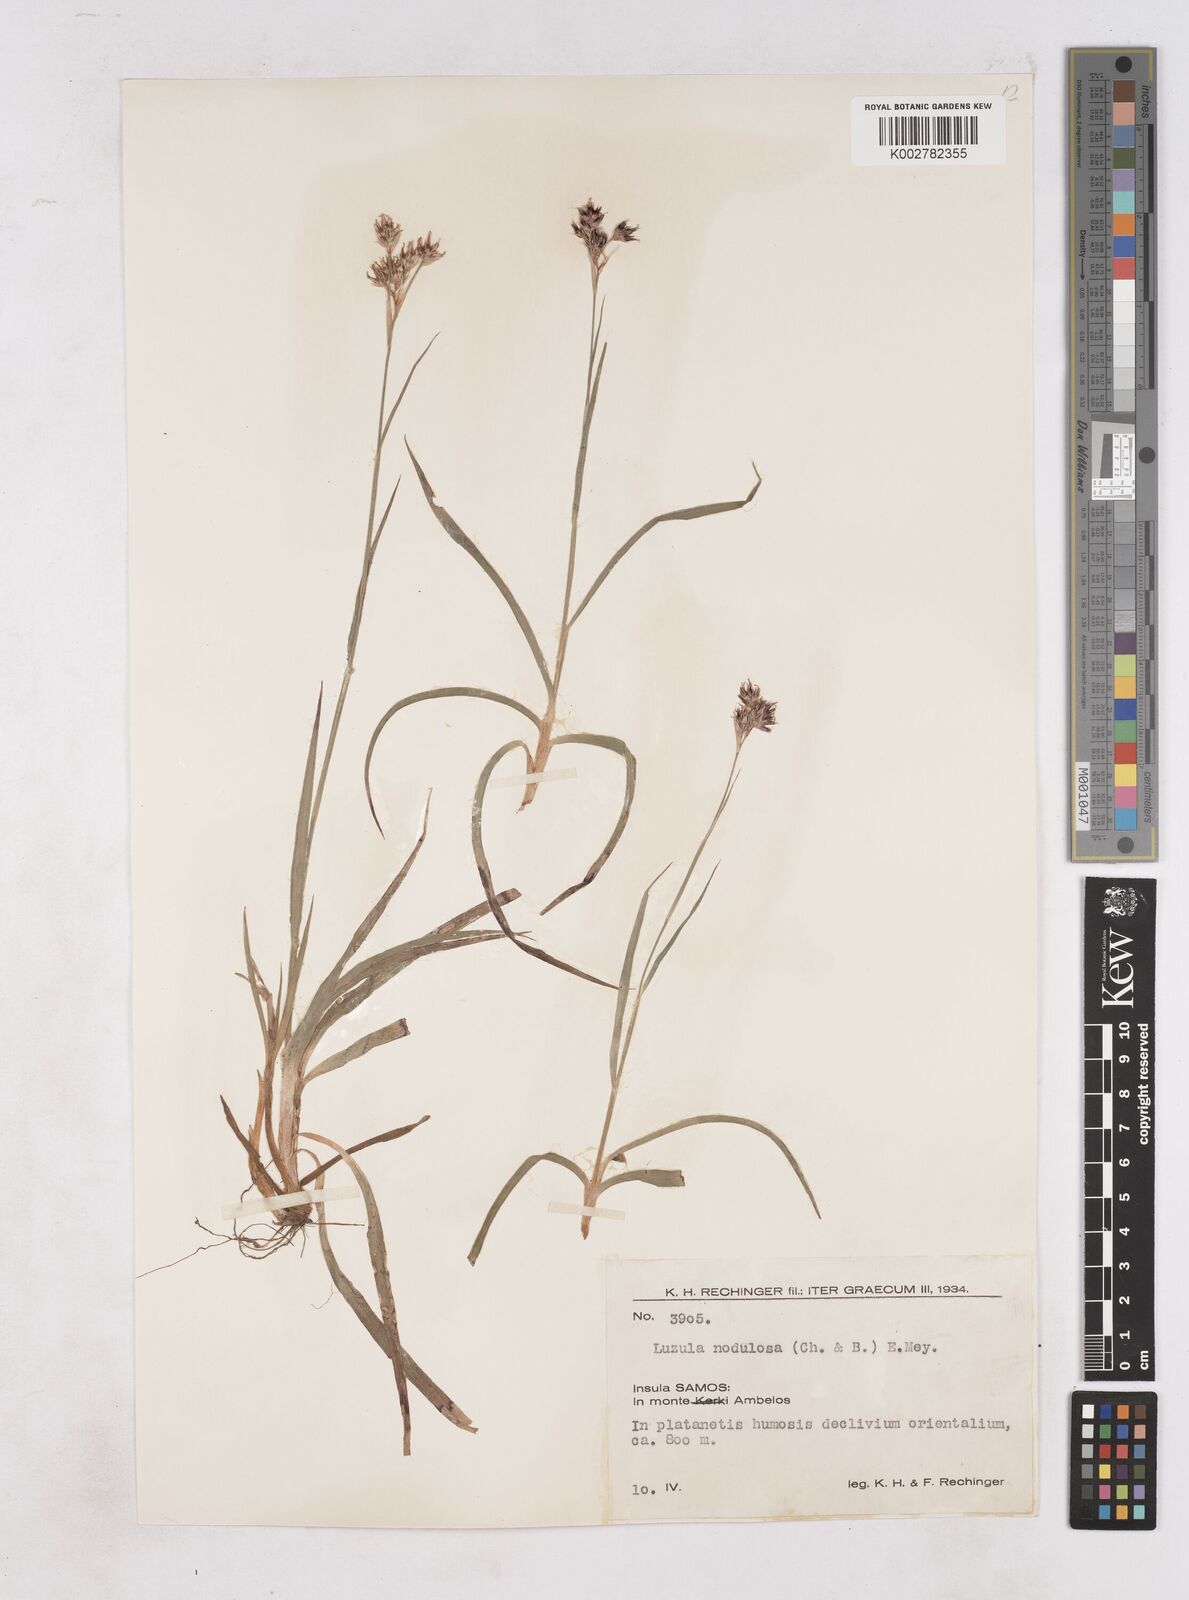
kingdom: Plantae
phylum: Tracheophyta
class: Liliopsida
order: Poales
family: Juncaceae
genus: Luzula
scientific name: Luzula nodulosa
